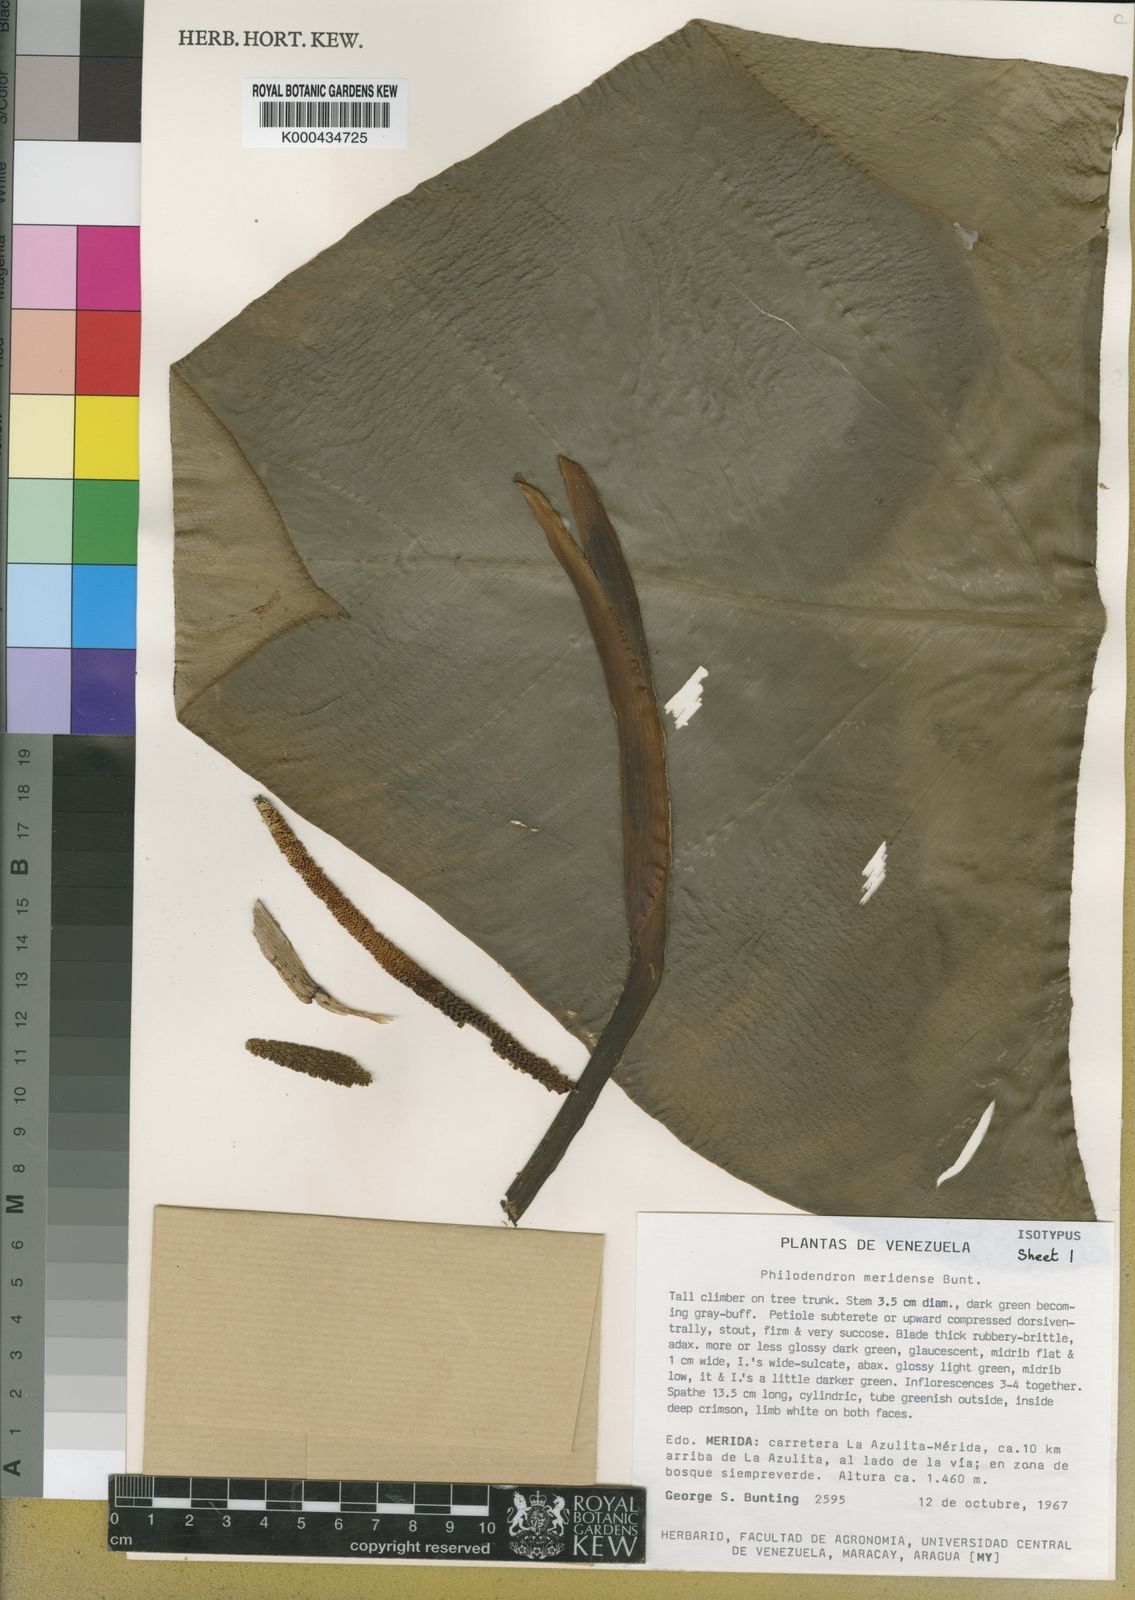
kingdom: Plantae
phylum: Tracheophyta
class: Liliopsida
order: Alismatales
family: Araceae
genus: Philodendron
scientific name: Philodendron meridense
